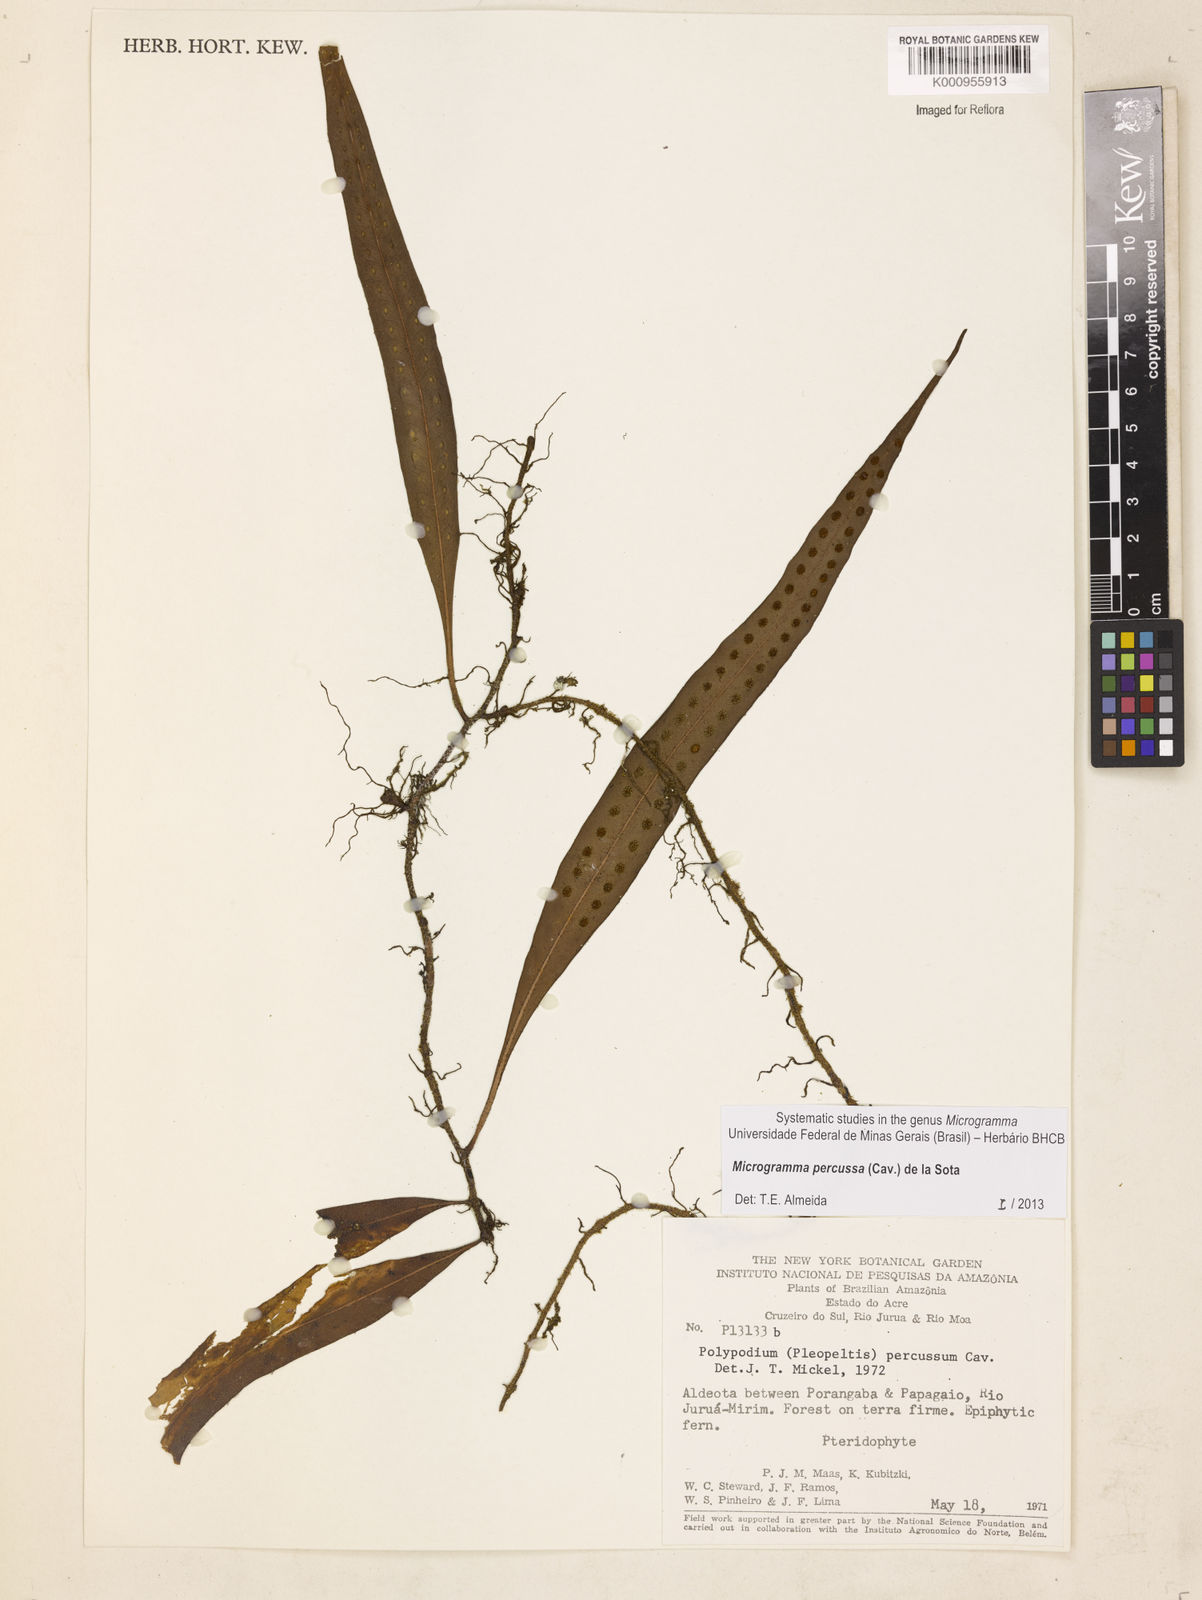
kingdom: Plantae
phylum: Tracheophyta
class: Polypodiopsida
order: Polypodiales
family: Polypodiaceae
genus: Microgramma
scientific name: Microgramma percussa
